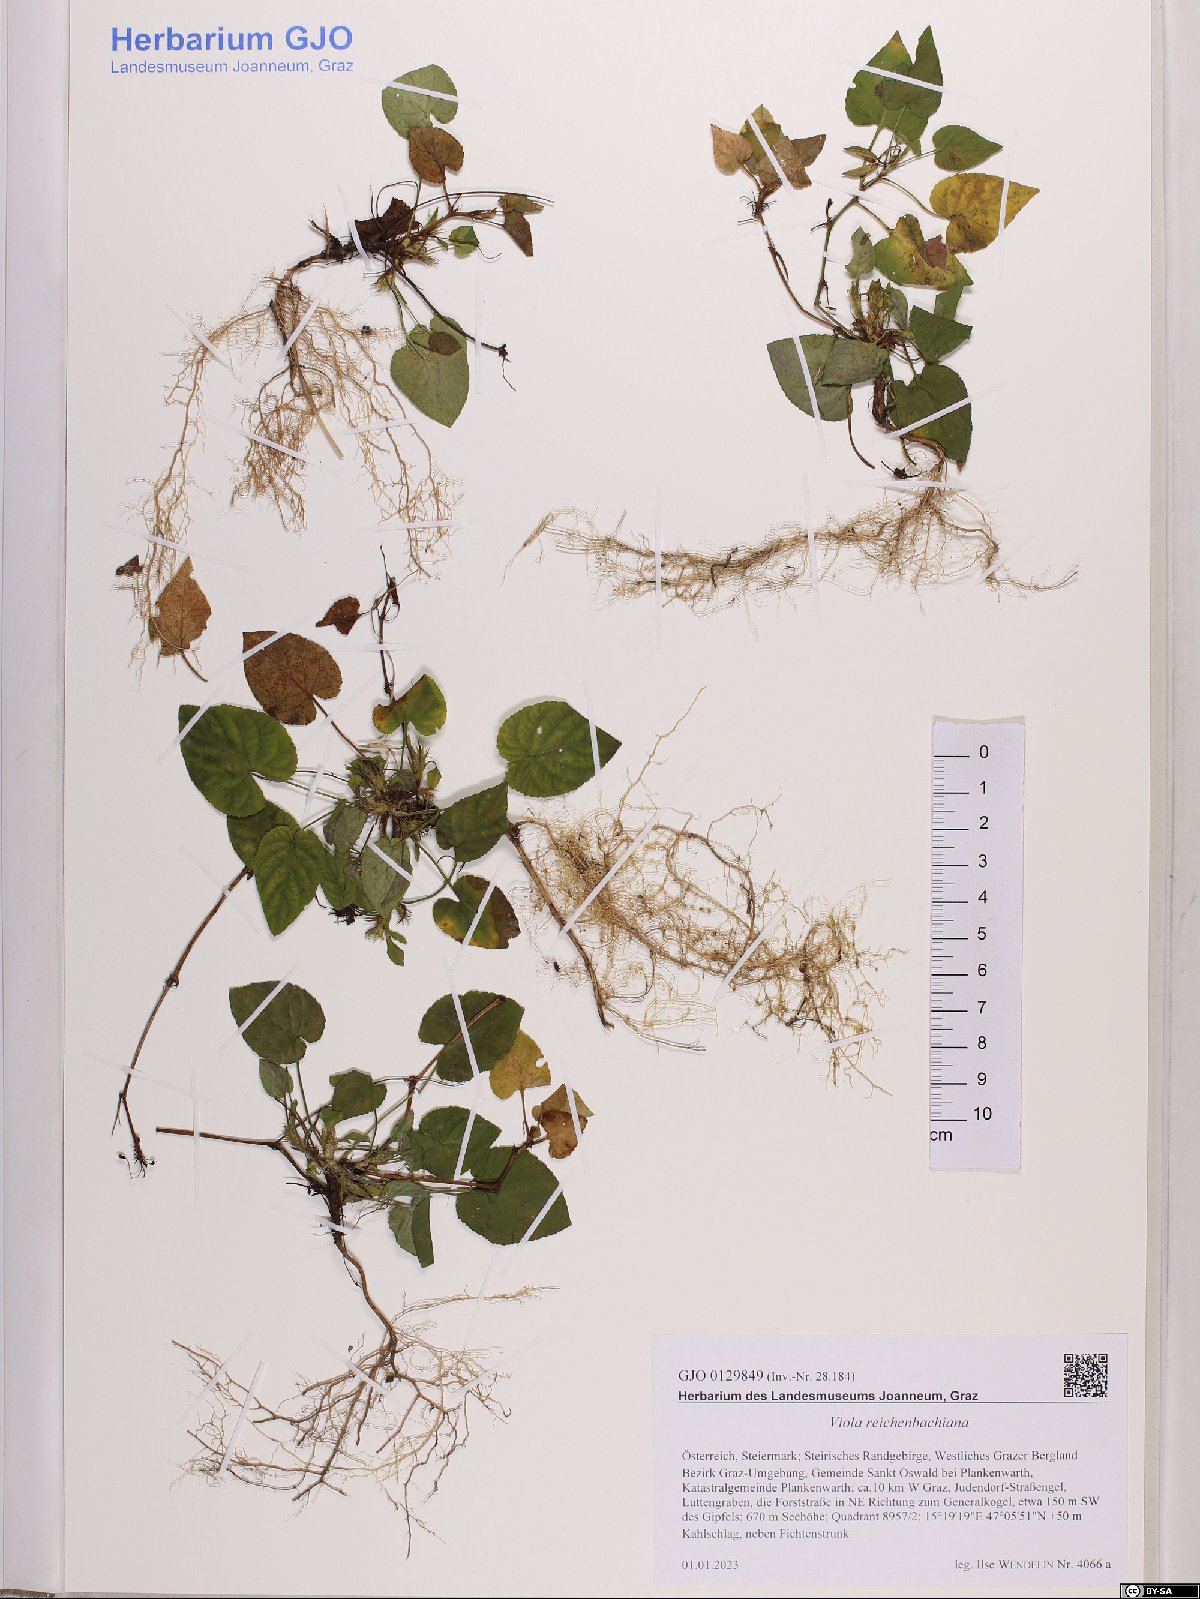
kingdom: Plantae
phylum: Tracheophyta
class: Magnoliopsida
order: Malpighiales
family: Violaceae
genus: Viola
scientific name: Viola reichenbachiana
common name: Early dog-violet
